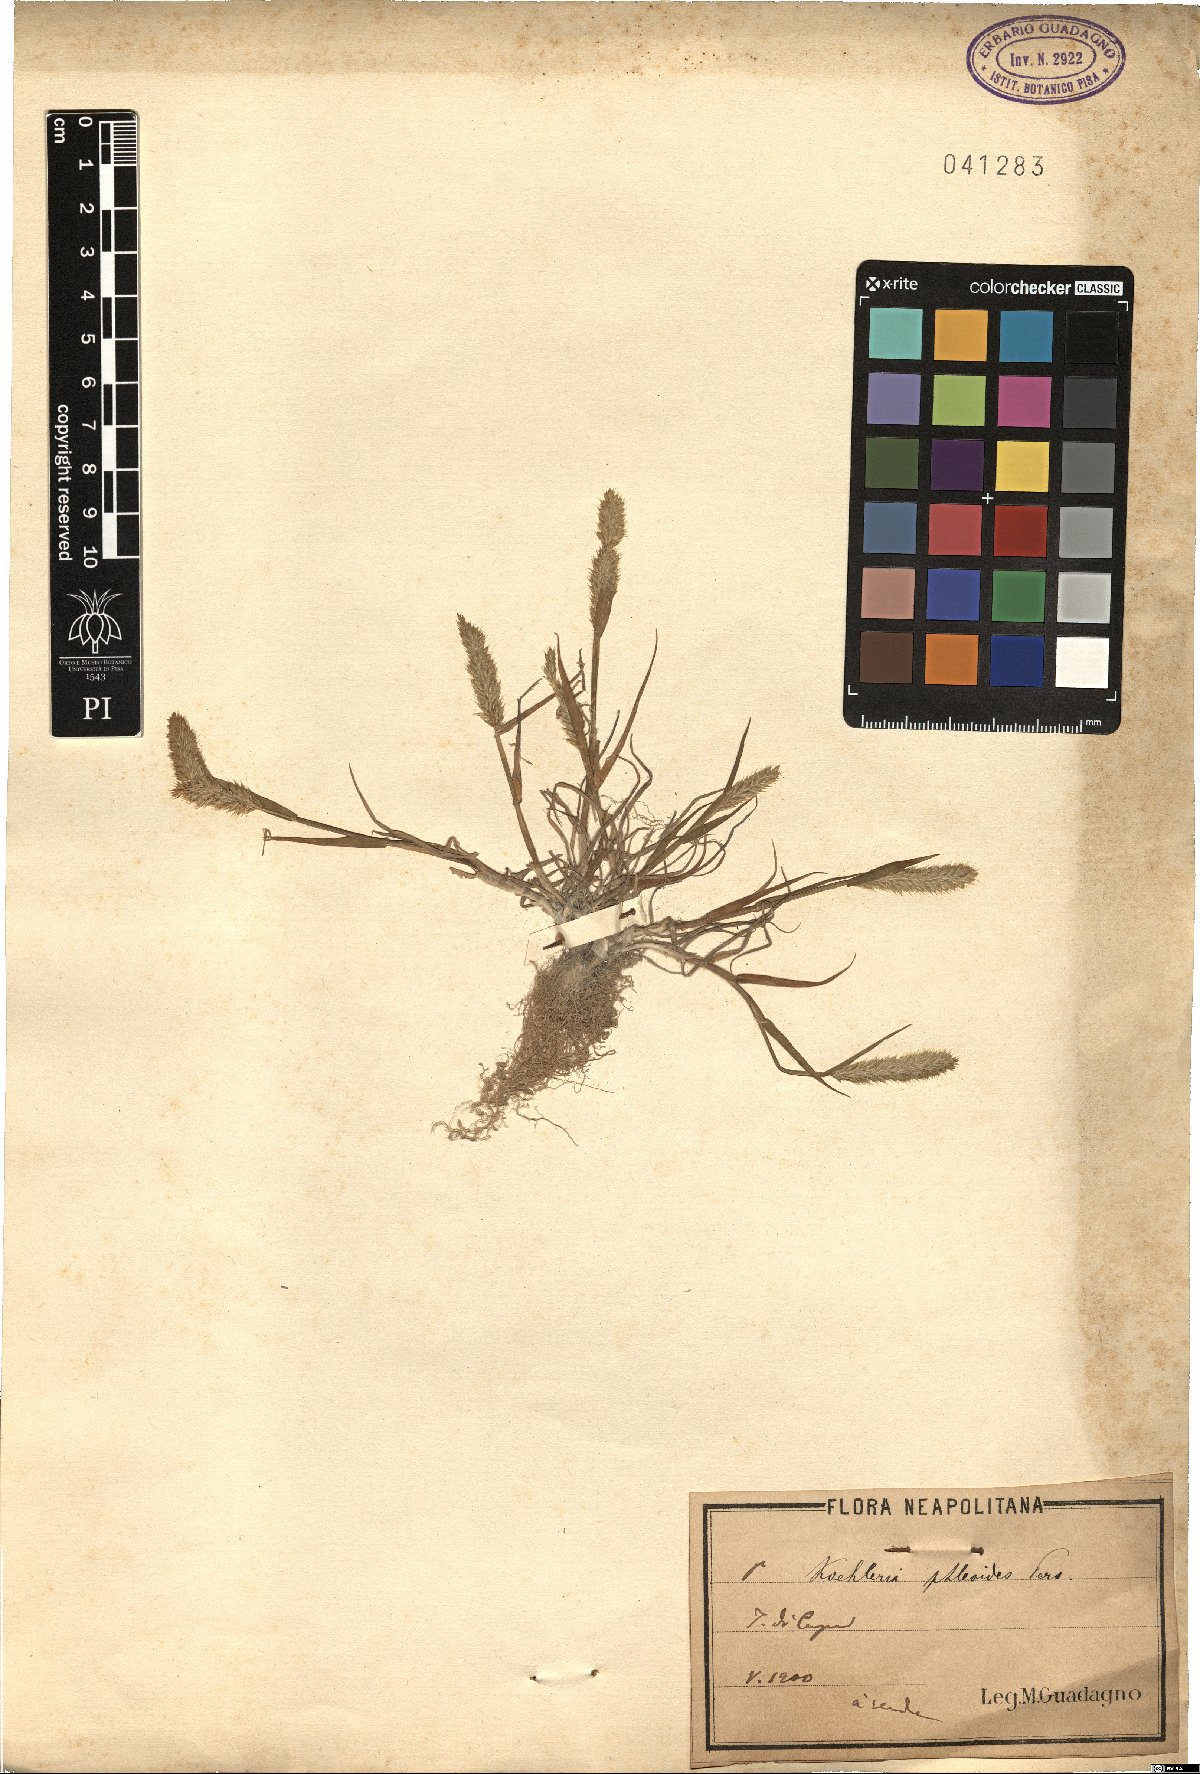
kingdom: Plantae
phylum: Tracheophyta
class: Liliopsida
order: Poales
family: Poaceae
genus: Rostraria
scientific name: Rostraria cristata
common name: Mediterranean hair-grass
